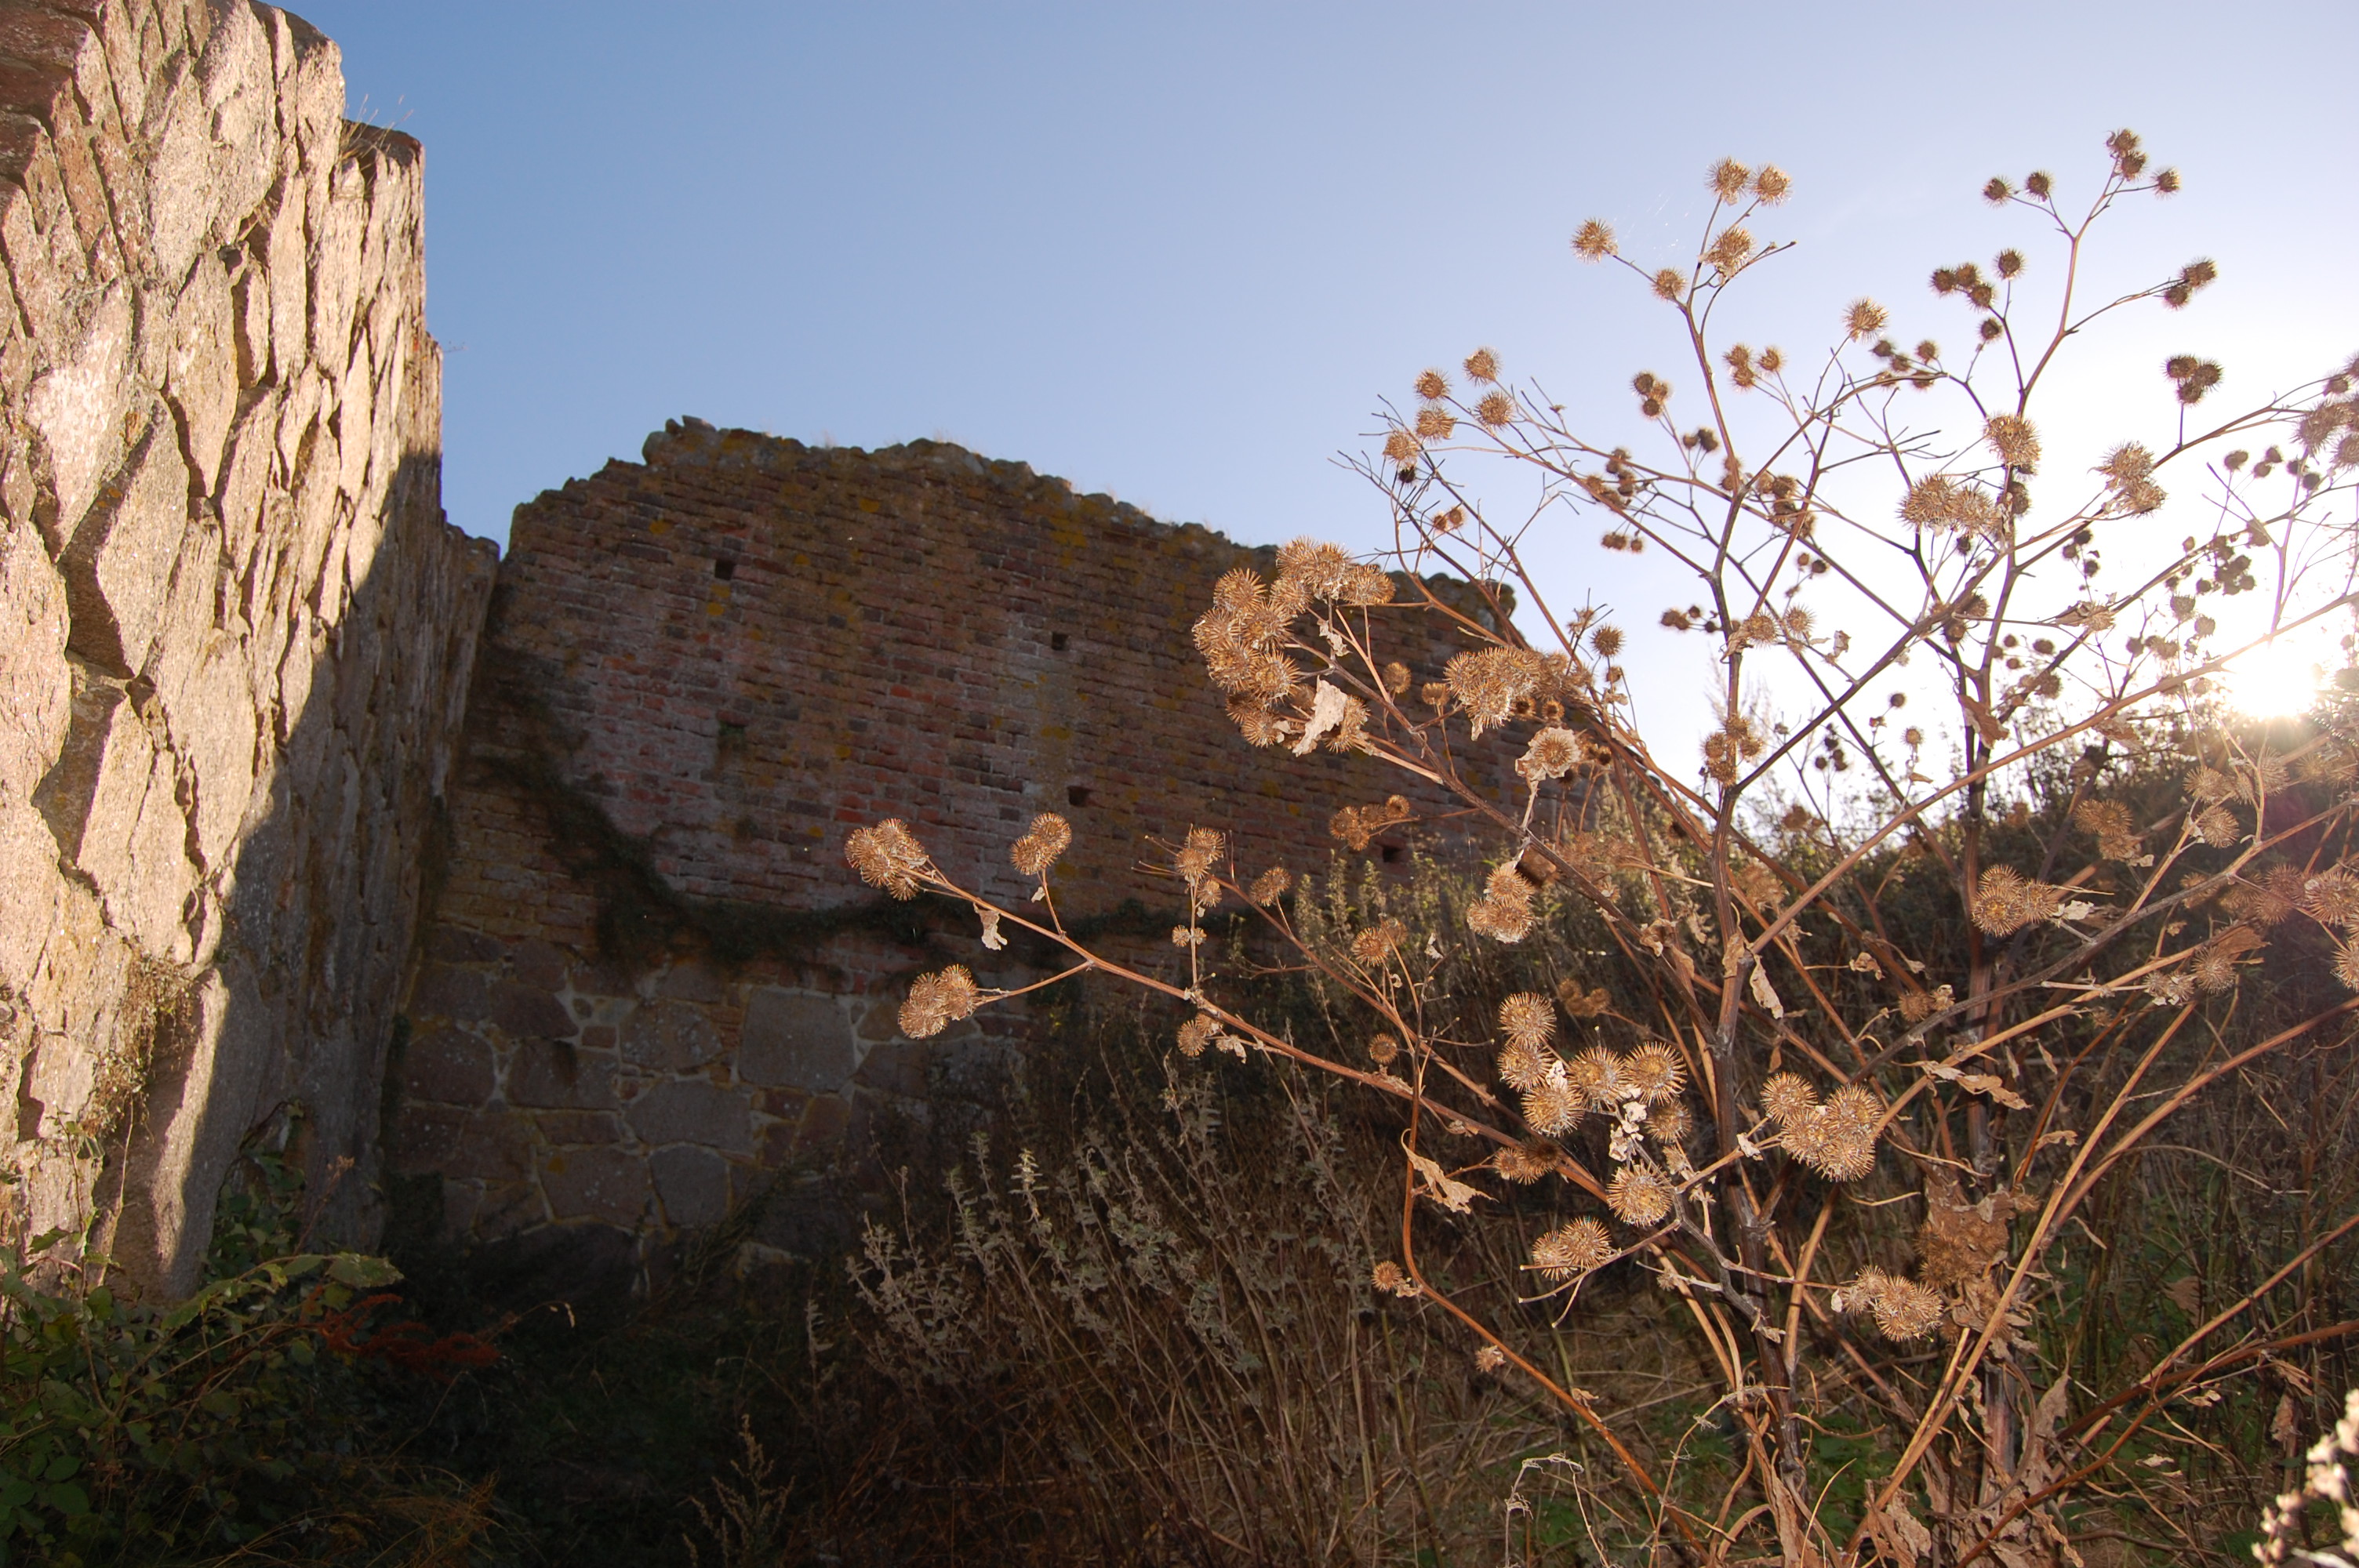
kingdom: Plantae
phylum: Tracheophyta
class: Magnoliopsida
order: Asterales
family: Asteraceae
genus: Arctium
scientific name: Arctium lappa
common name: Greater burdock
